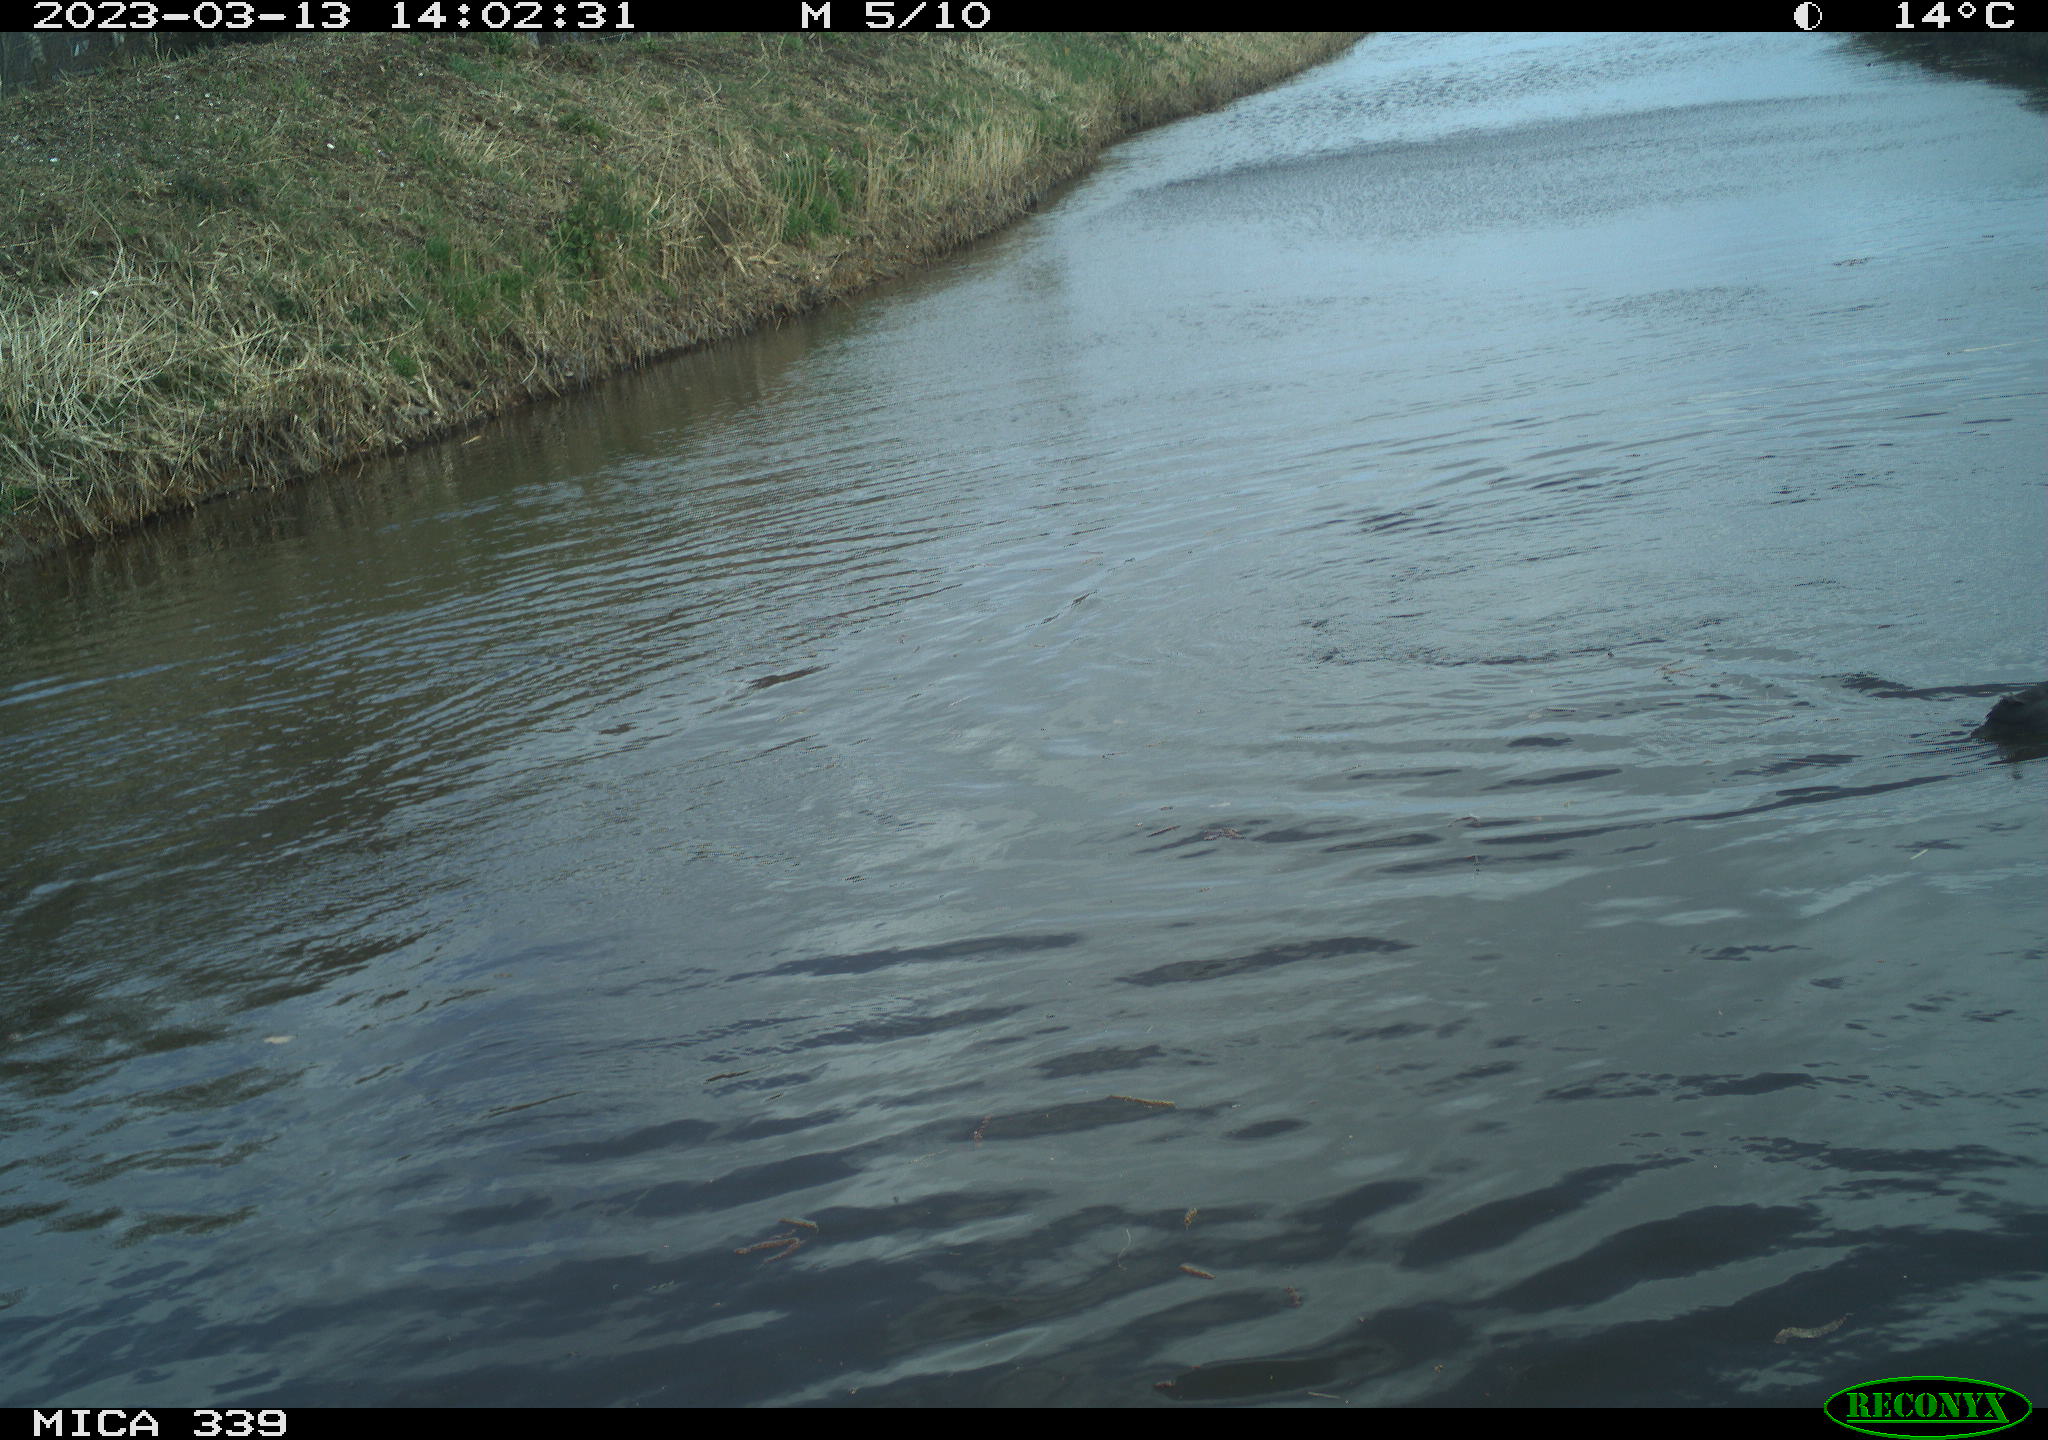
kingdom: Animalia
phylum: Chordata
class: Aves
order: Gruiformes
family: Rallidae
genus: Gallinula
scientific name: Gallinula chloropus
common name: Common moorhen
